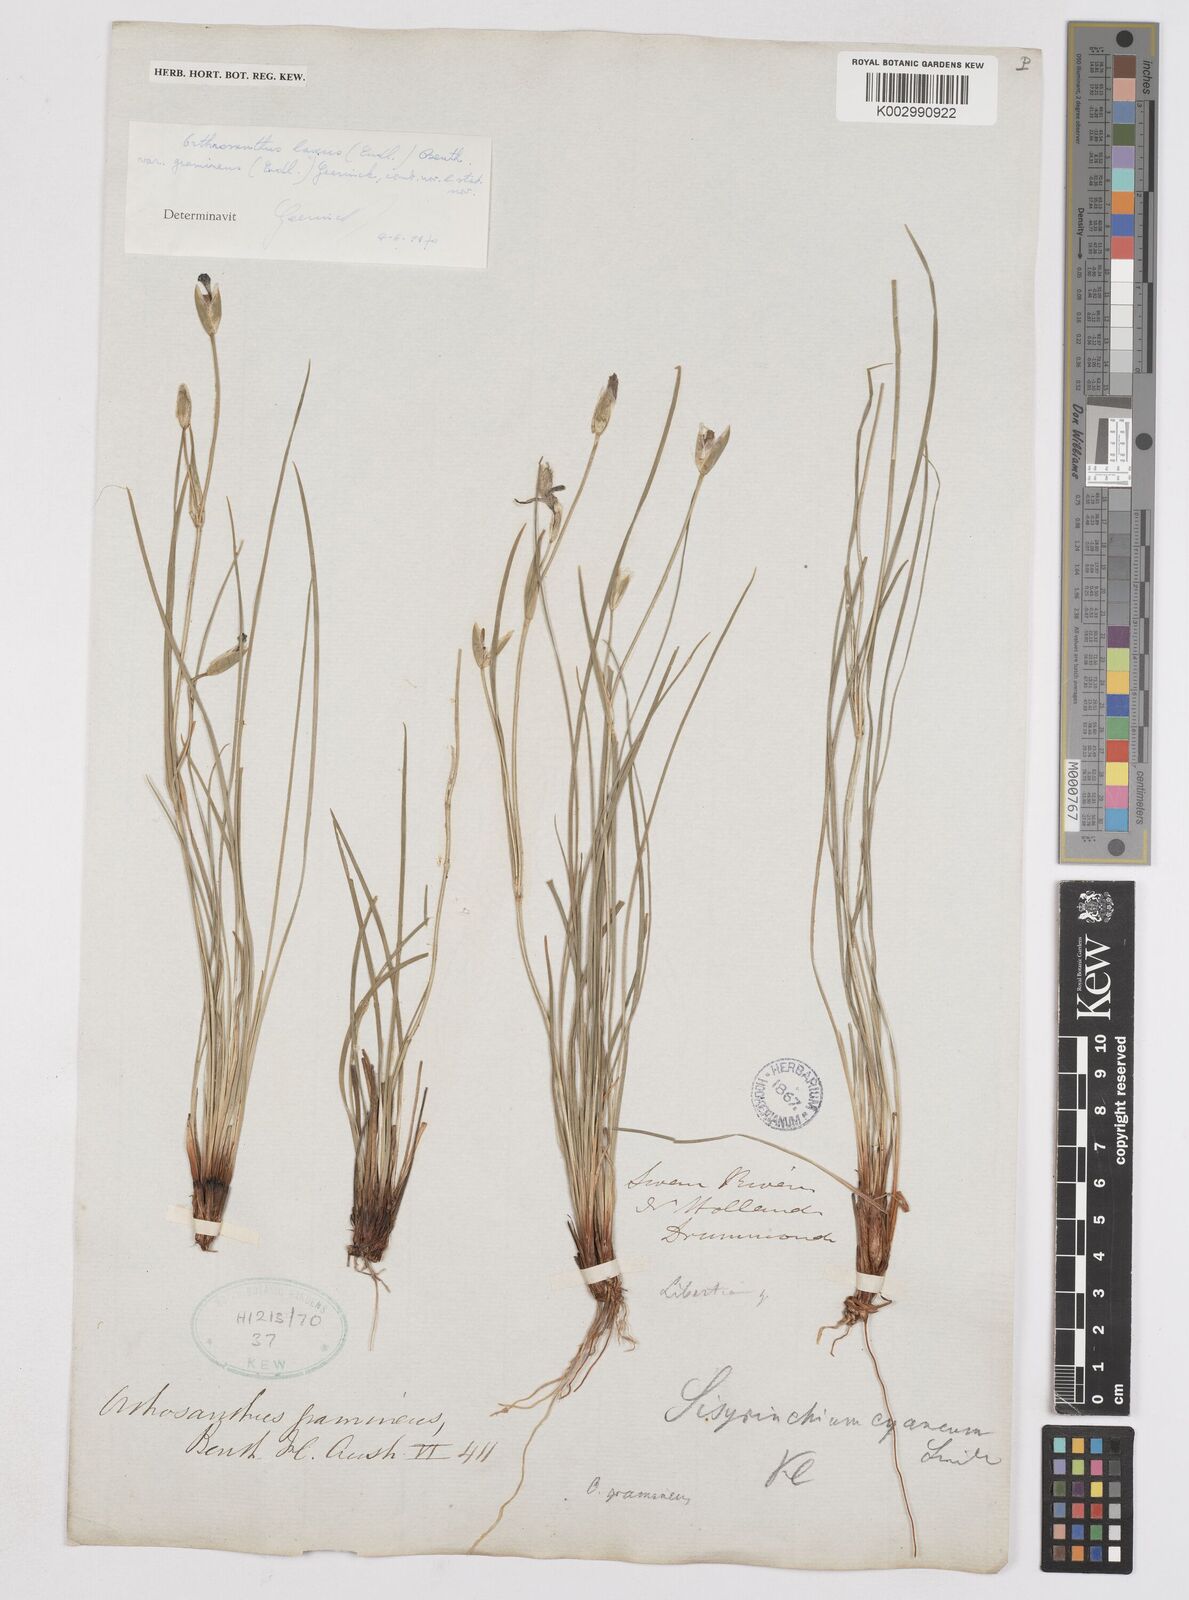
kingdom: Plantae
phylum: Tracheophyta
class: Liliopsida
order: Asparagales
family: Iridaceae
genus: Orthrosanthus
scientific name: Orthrosanthus laxus
